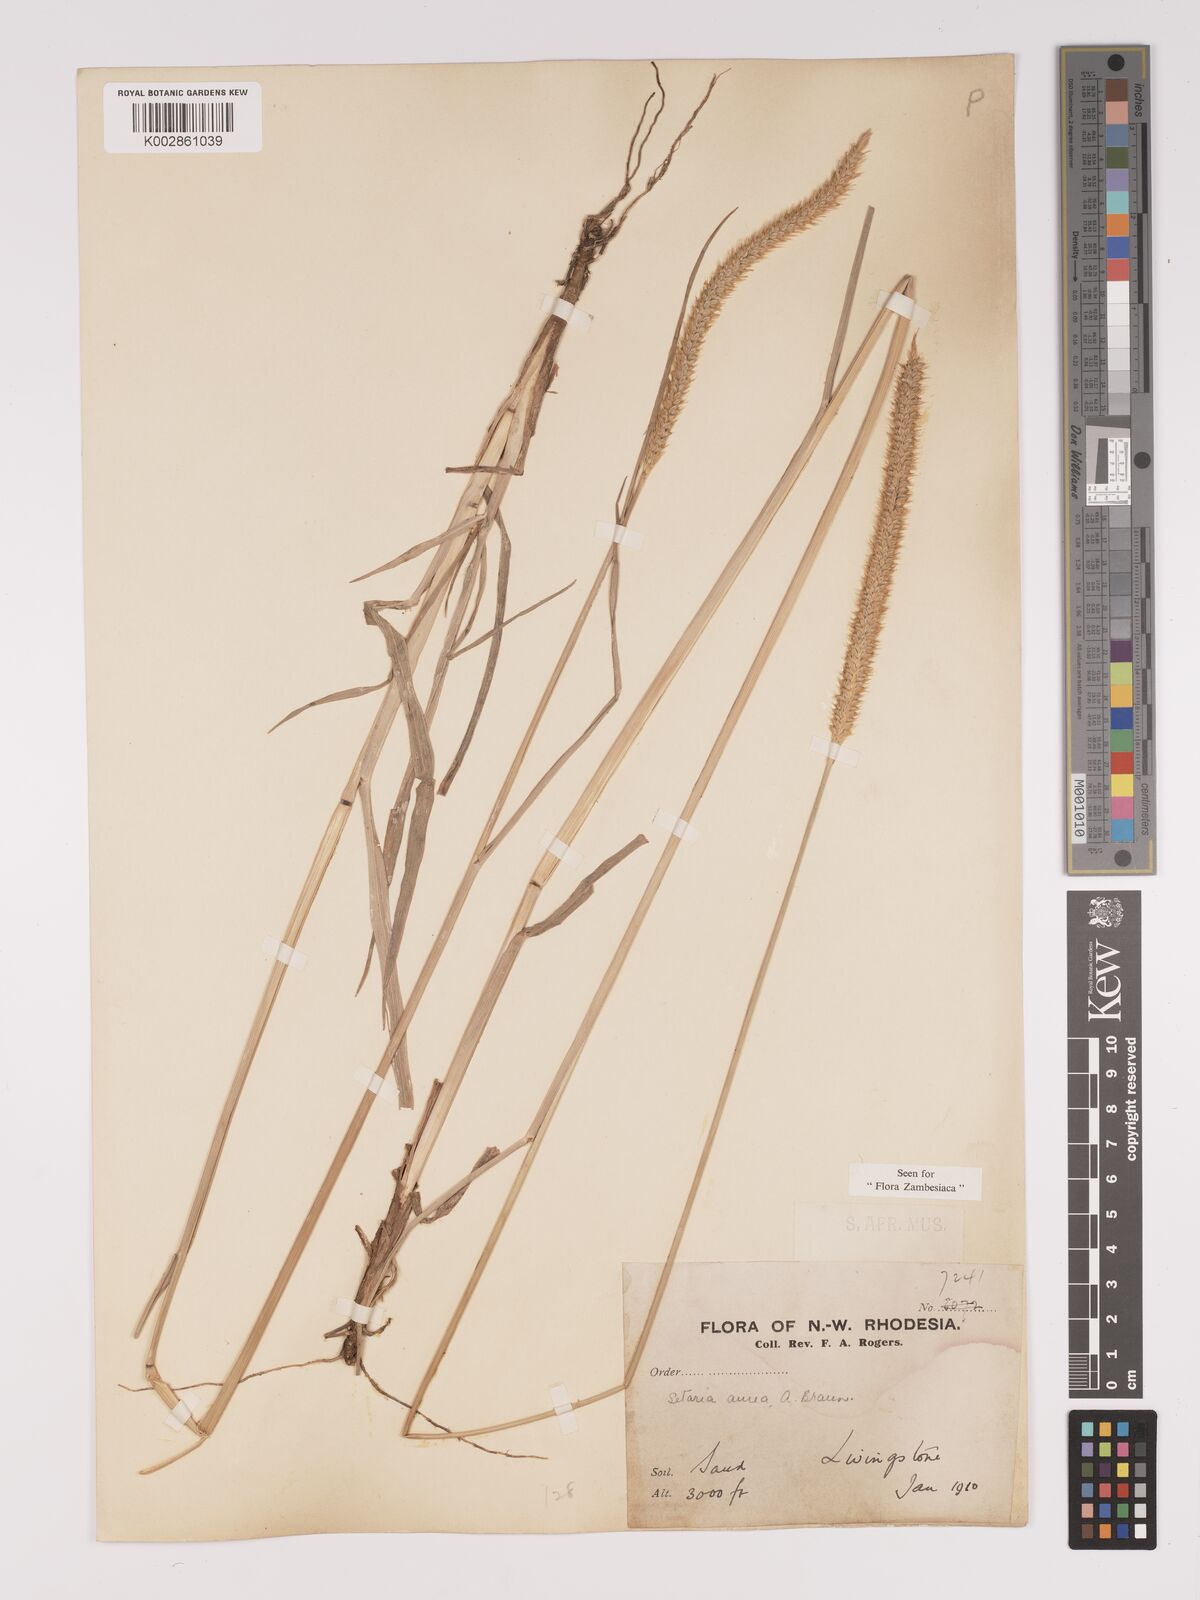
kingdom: Plantae
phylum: Tracheophyta
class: Liliopsida
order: Poales
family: Poaceae
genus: Setaria
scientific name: Setaria sphacelata
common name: African bristlegrass
